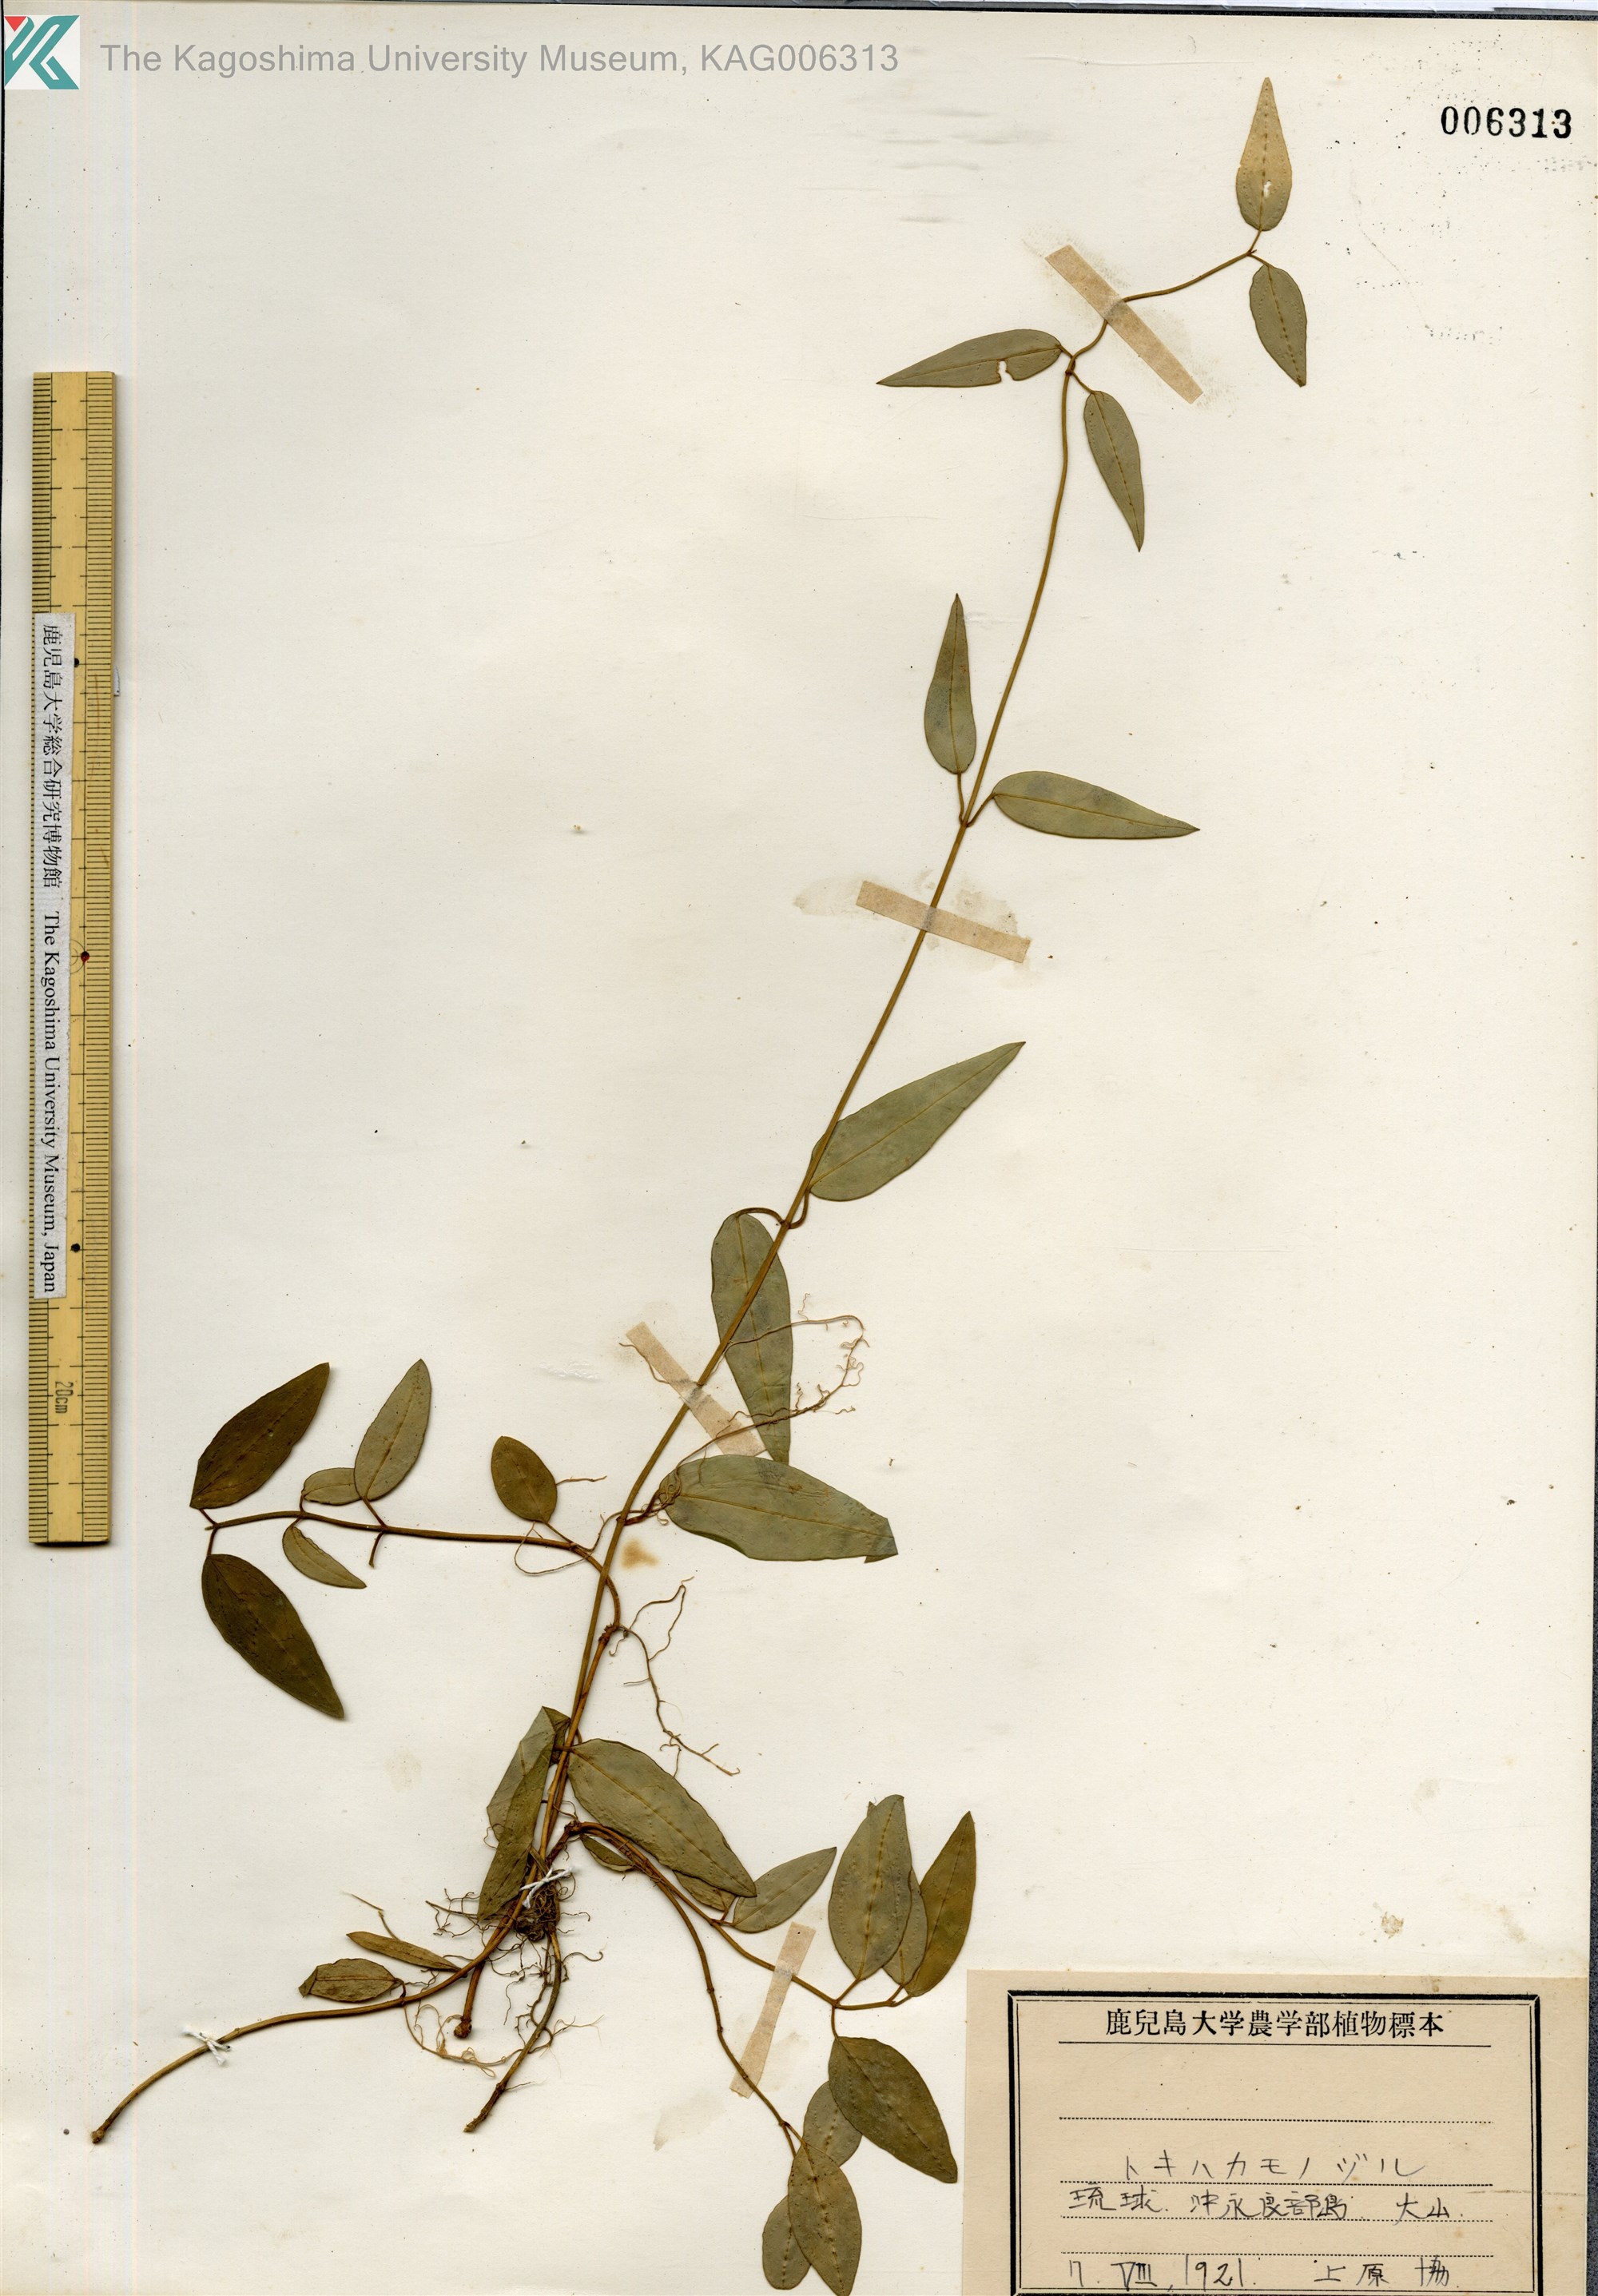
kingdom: Plantae
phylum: Tracheophyta
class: Magnoliopsida
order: Gentianales
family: Apocynaceae
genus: Vincetoxicum
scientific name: Vincetoxicum sieboldii
